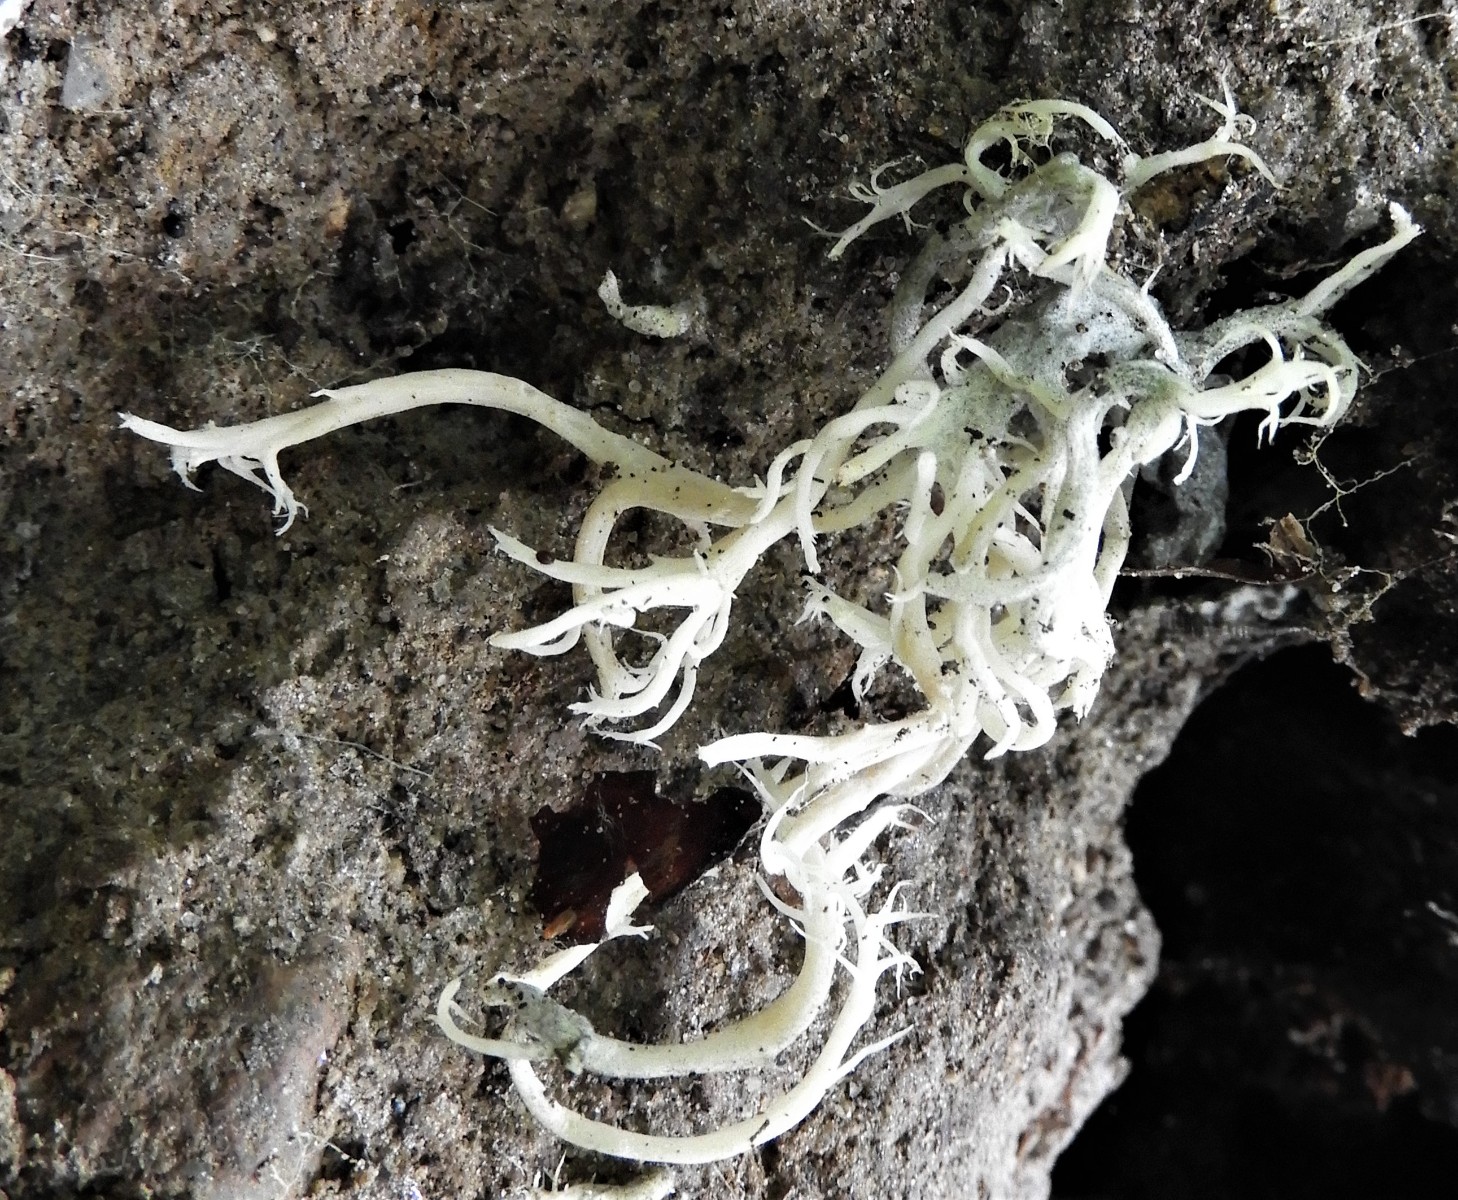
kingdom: Fungi
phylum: Basidiomycota
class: Agaricomycetes
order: Cantharellales
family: Hydnaceae
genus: Clavulina
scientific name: Clavulina
